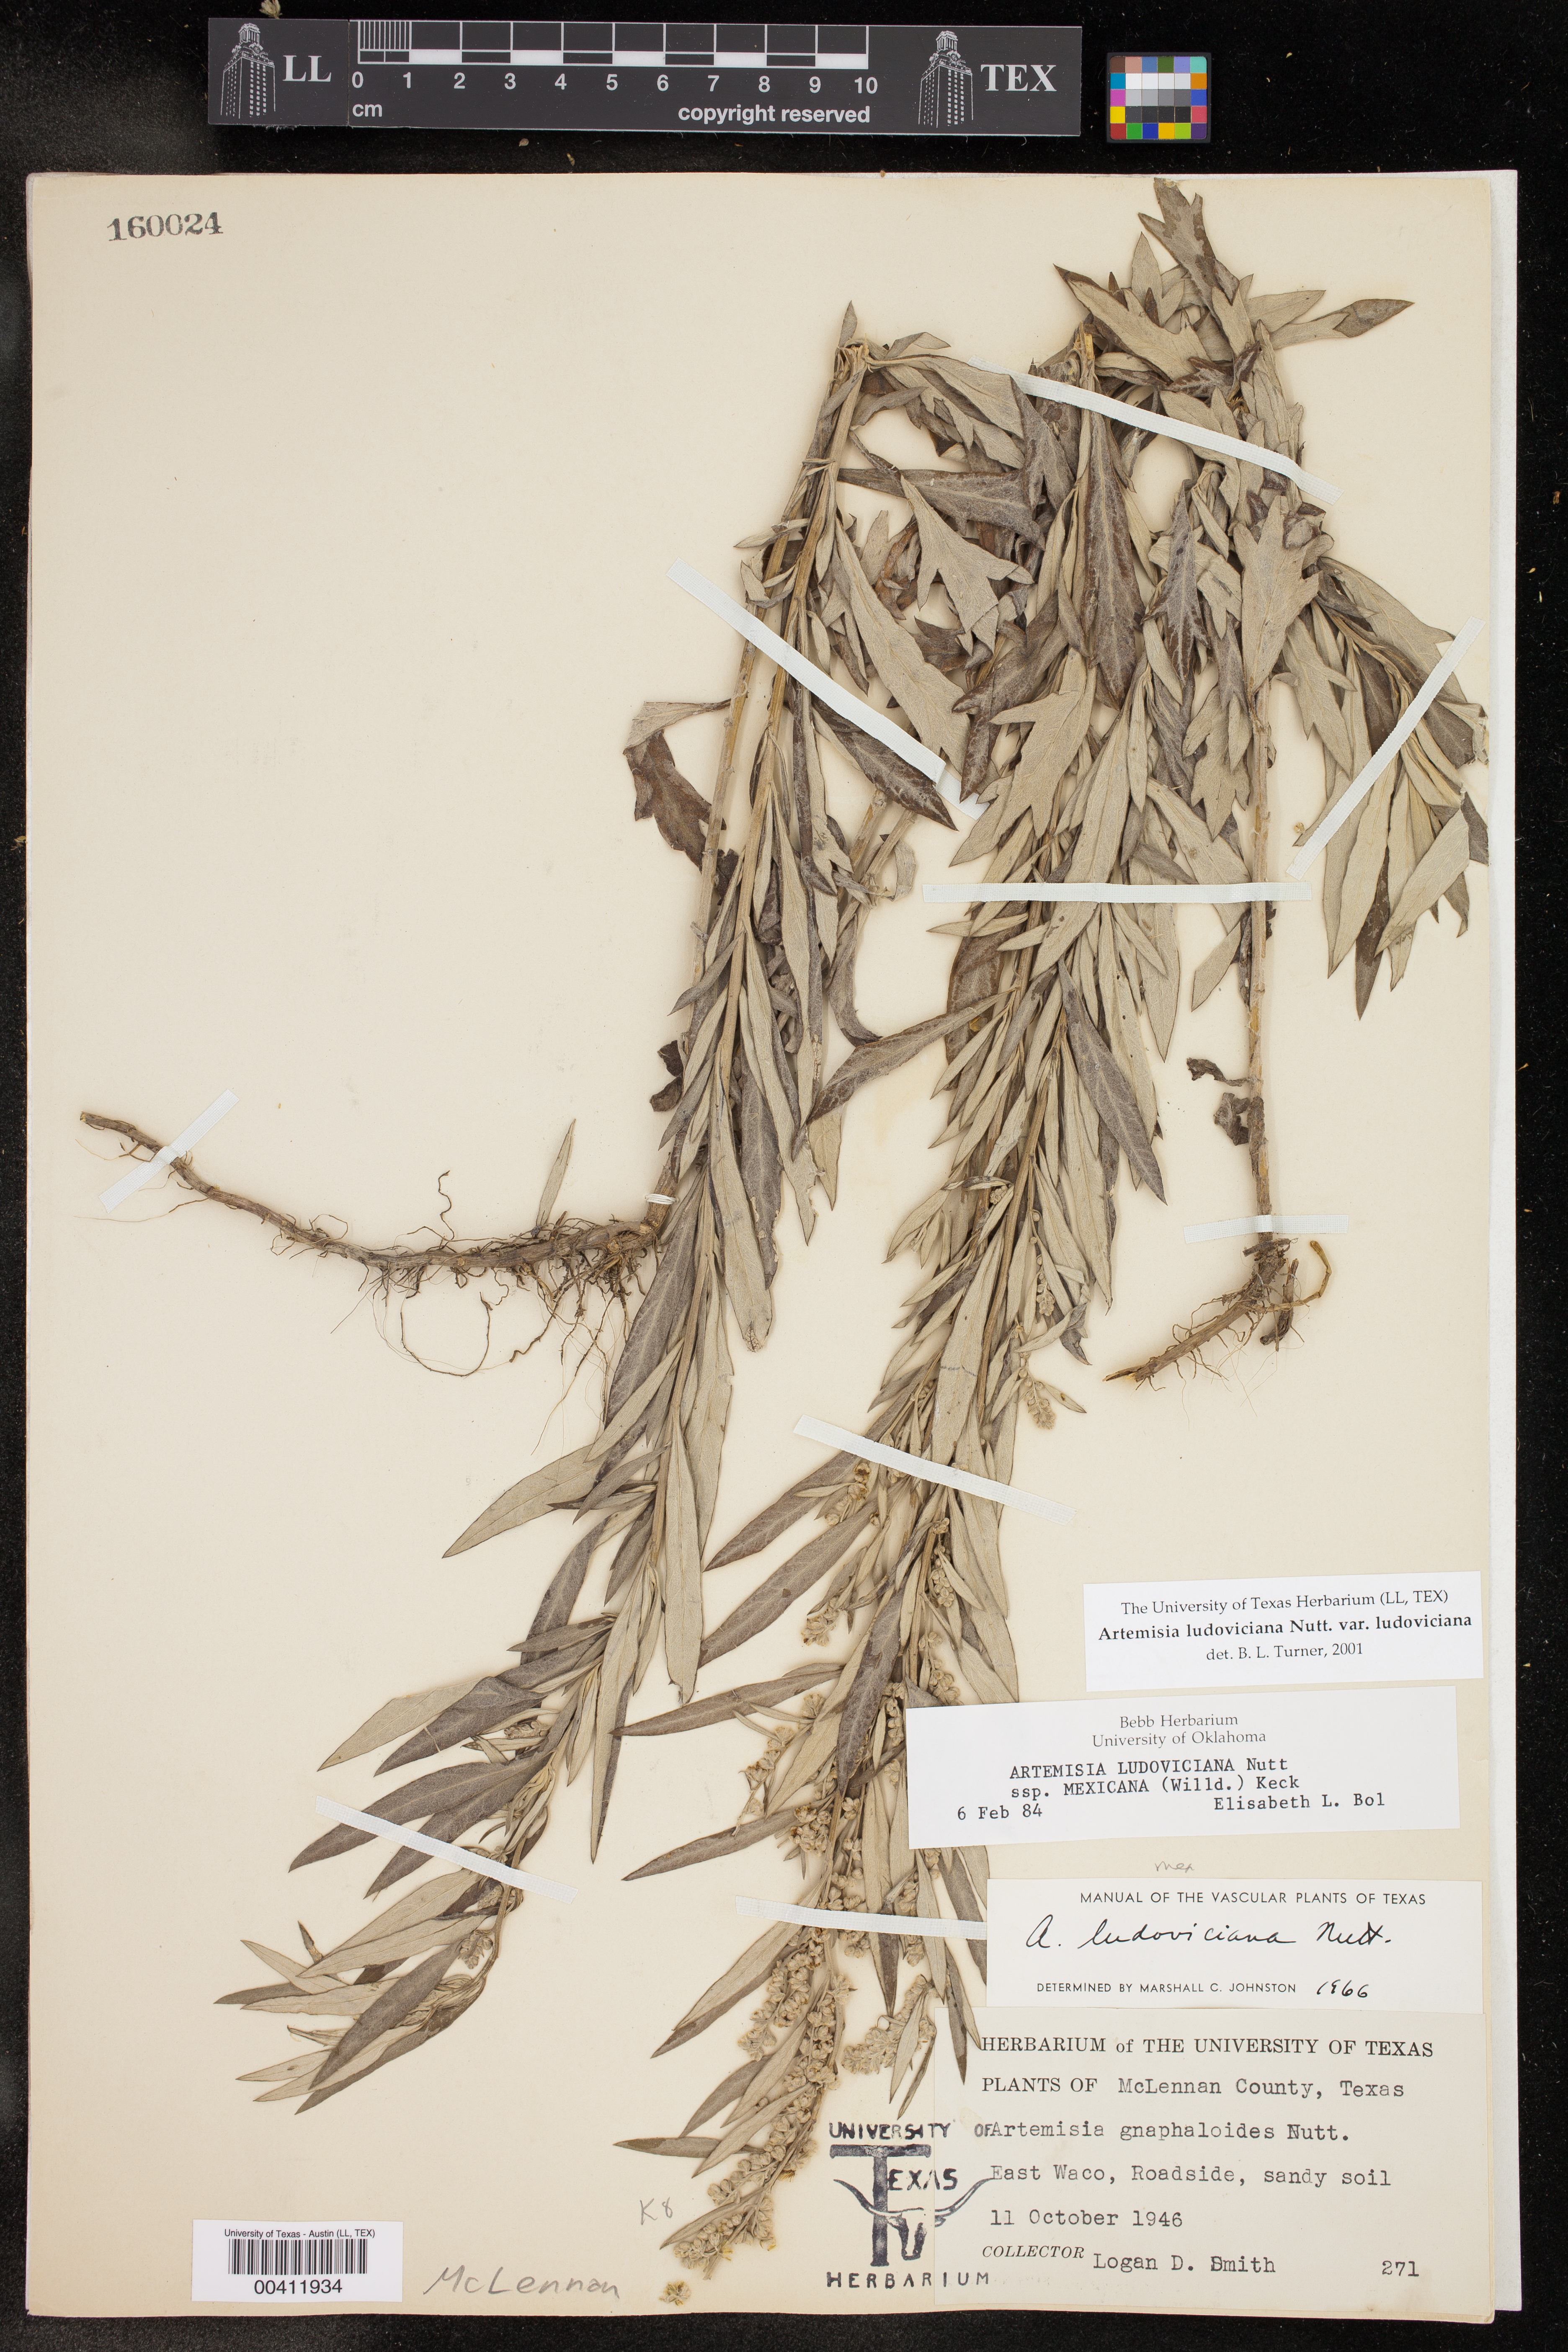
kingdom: Plantae
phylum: Tracheophyta
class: Magnoliopsida
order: Asterales
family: Asteraceae
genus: Artemisia
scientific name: Artemisia ludoviciana
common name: Western mugwort
